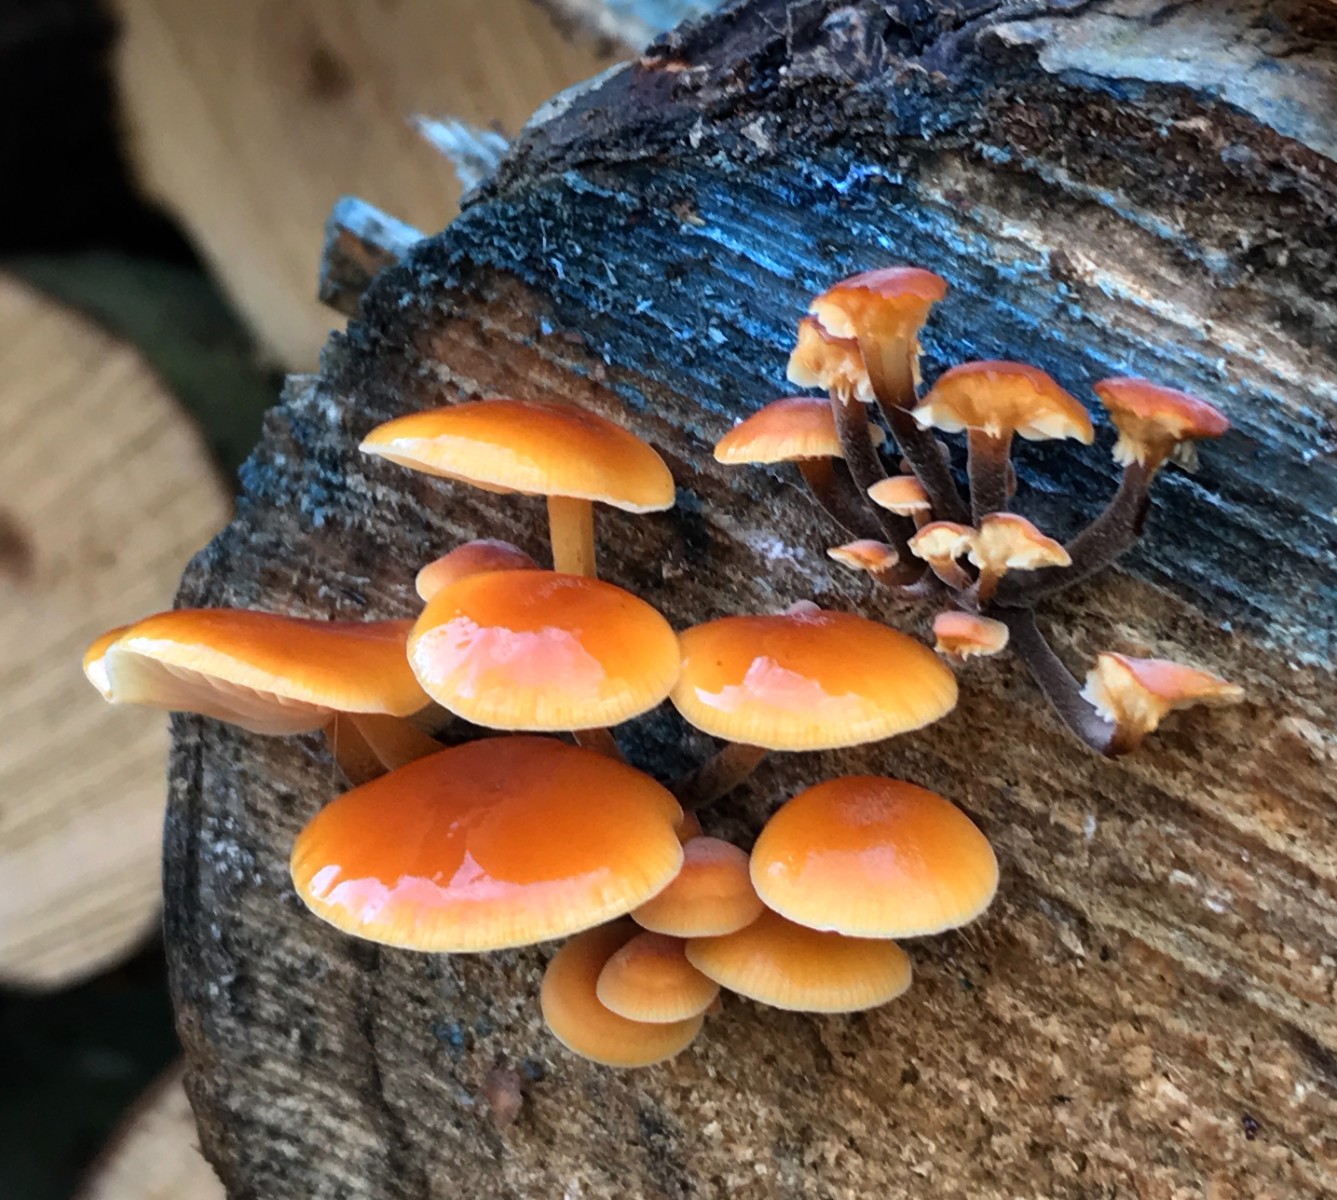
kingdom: Fungi
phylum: Basidiomycota
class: Agaricomycetes
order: Agaricales
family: Physalacriaceae
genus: Flammulina
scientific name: Flammulina velutipes
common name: gul fløjlsfod
